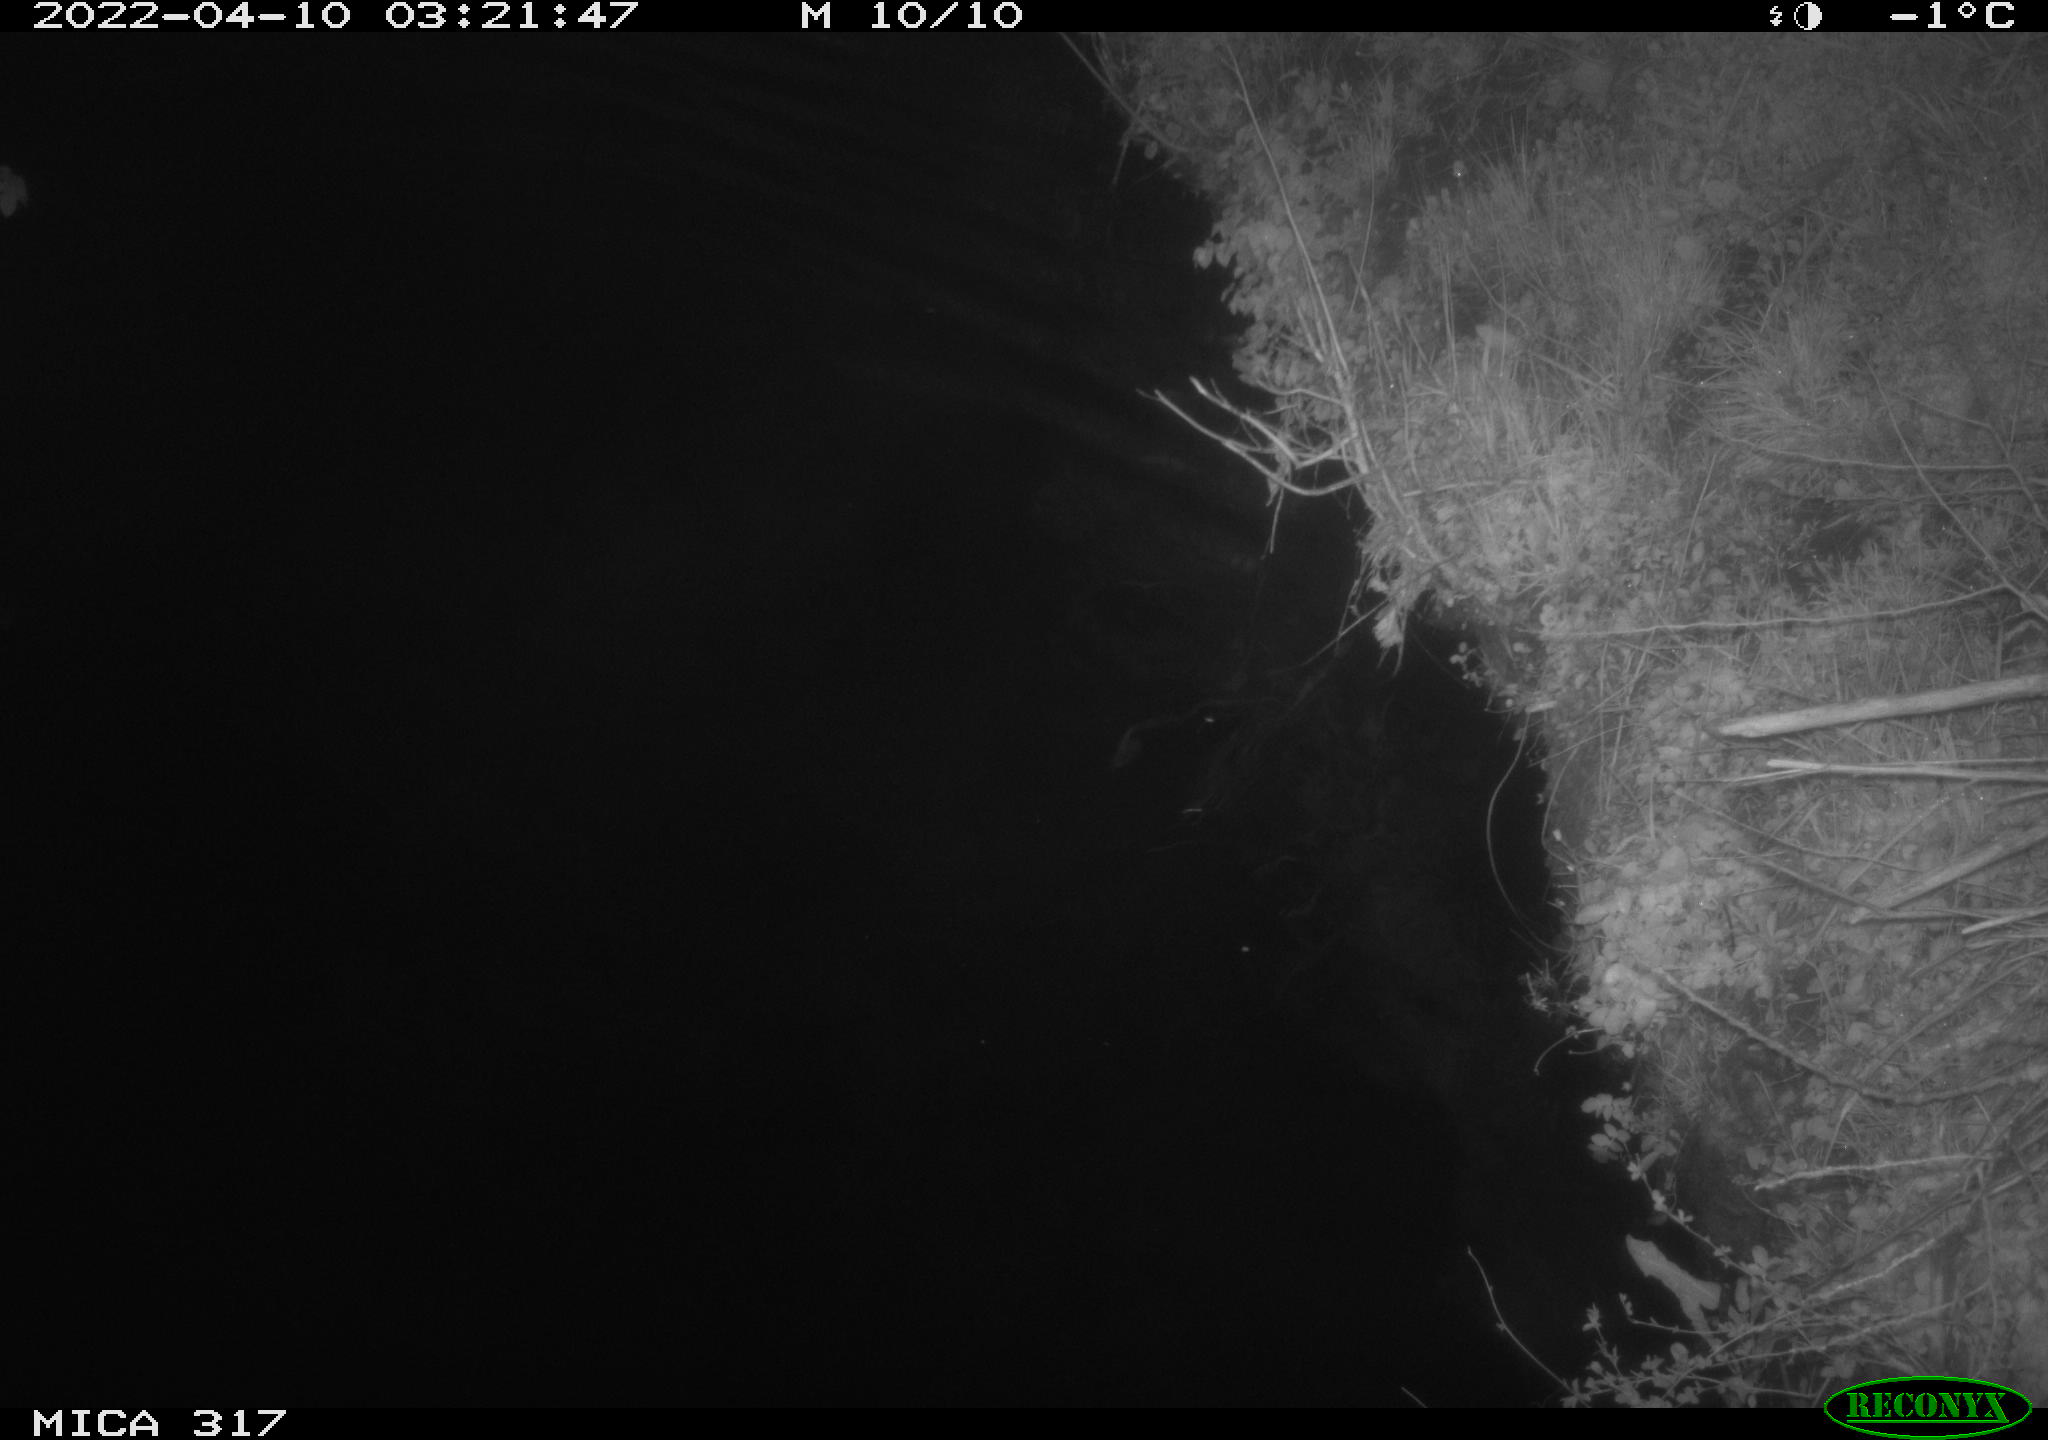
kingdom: Animalia
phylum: Chordata
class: Aves
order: Anseriformes
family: Anatidae
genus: Anas
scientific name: Anas platyrhynchos
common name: Mallard
